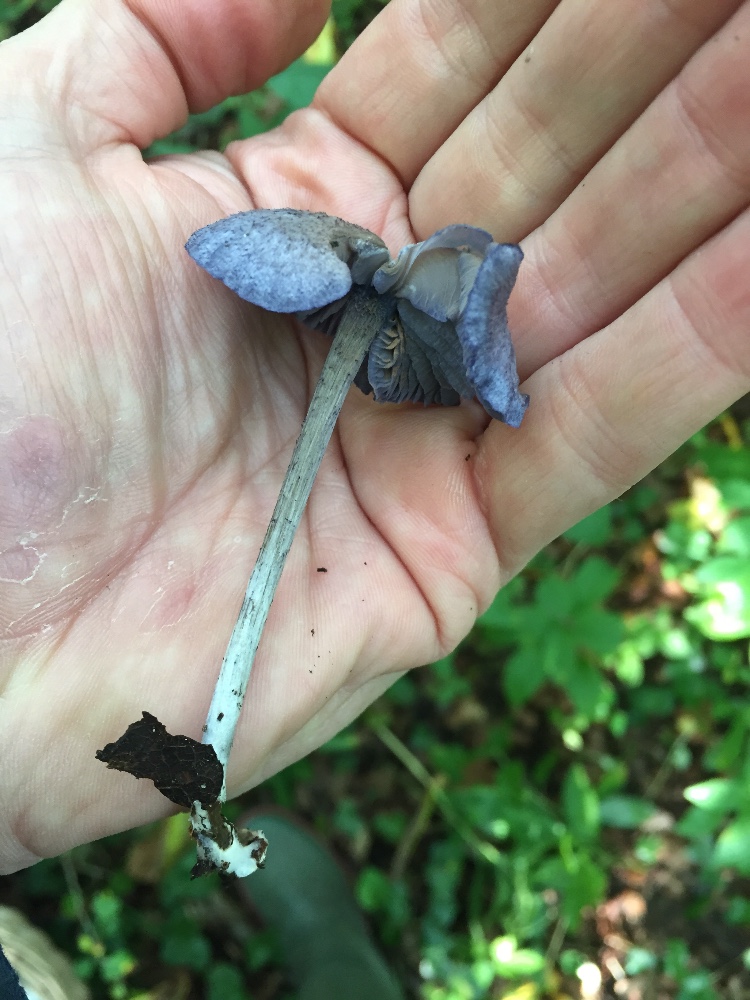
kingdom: Fungi
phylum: Basidiomycota
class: Agaricomycetes
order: Agaricales
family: Entolomataceae
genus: Entoloma
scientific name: Entoloma euchroum
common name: smuk rødblad
